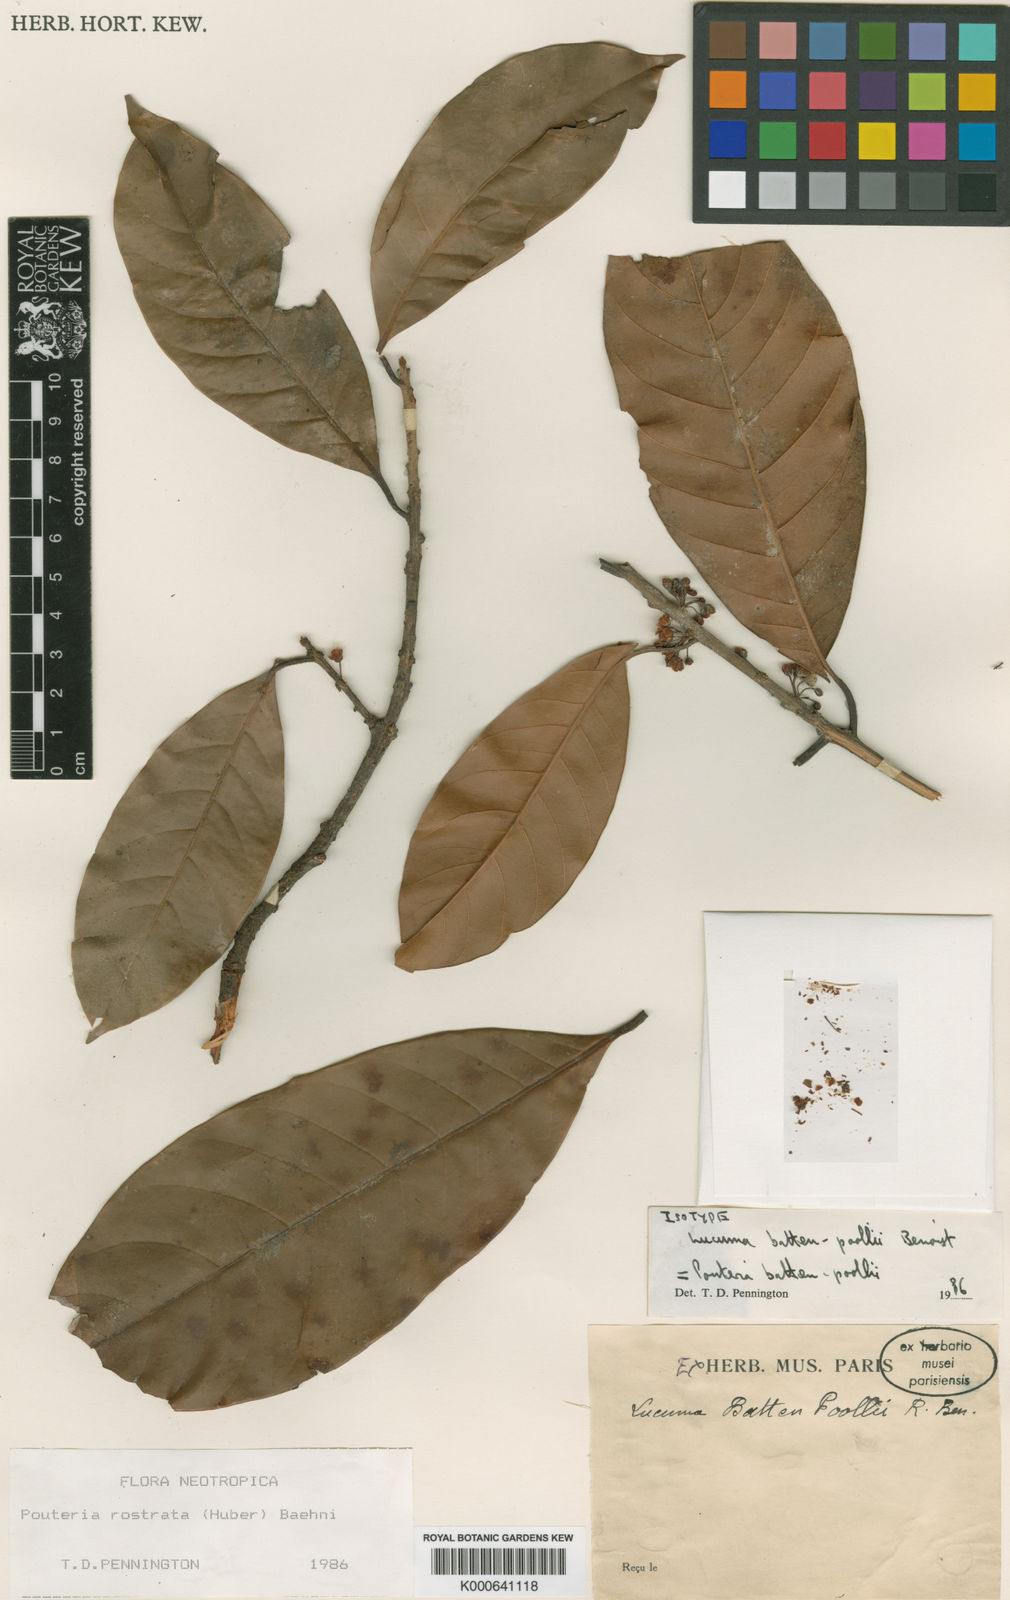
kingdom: Plantae
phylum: Tracheophyta
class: Magnoliopsida
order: Ericales
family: Sapotaceae
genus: Pouteria
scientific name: Pouteria rostrata
